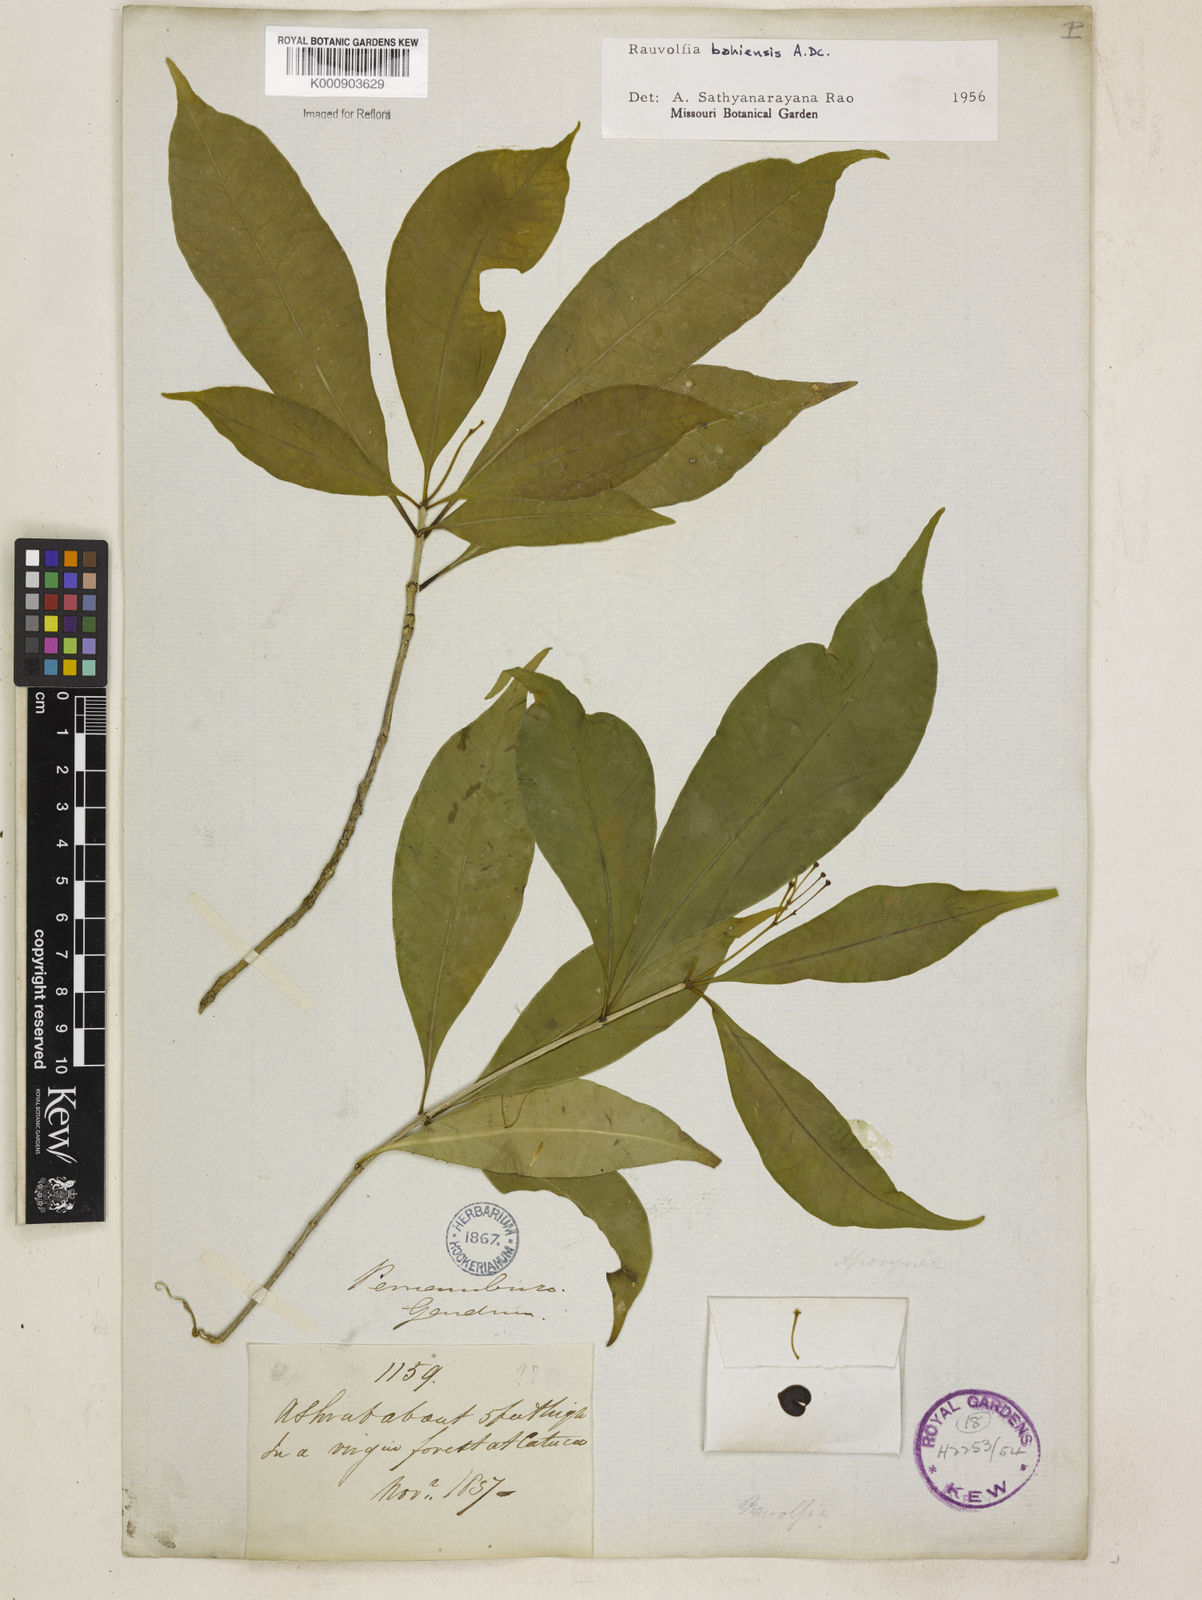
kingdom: Plantae
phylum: Tracheophyta
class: Magnoliopsida
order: Gentianales
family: Apocynaceae
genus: Rauvolfia
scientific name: Rauvolfia bahiensis
